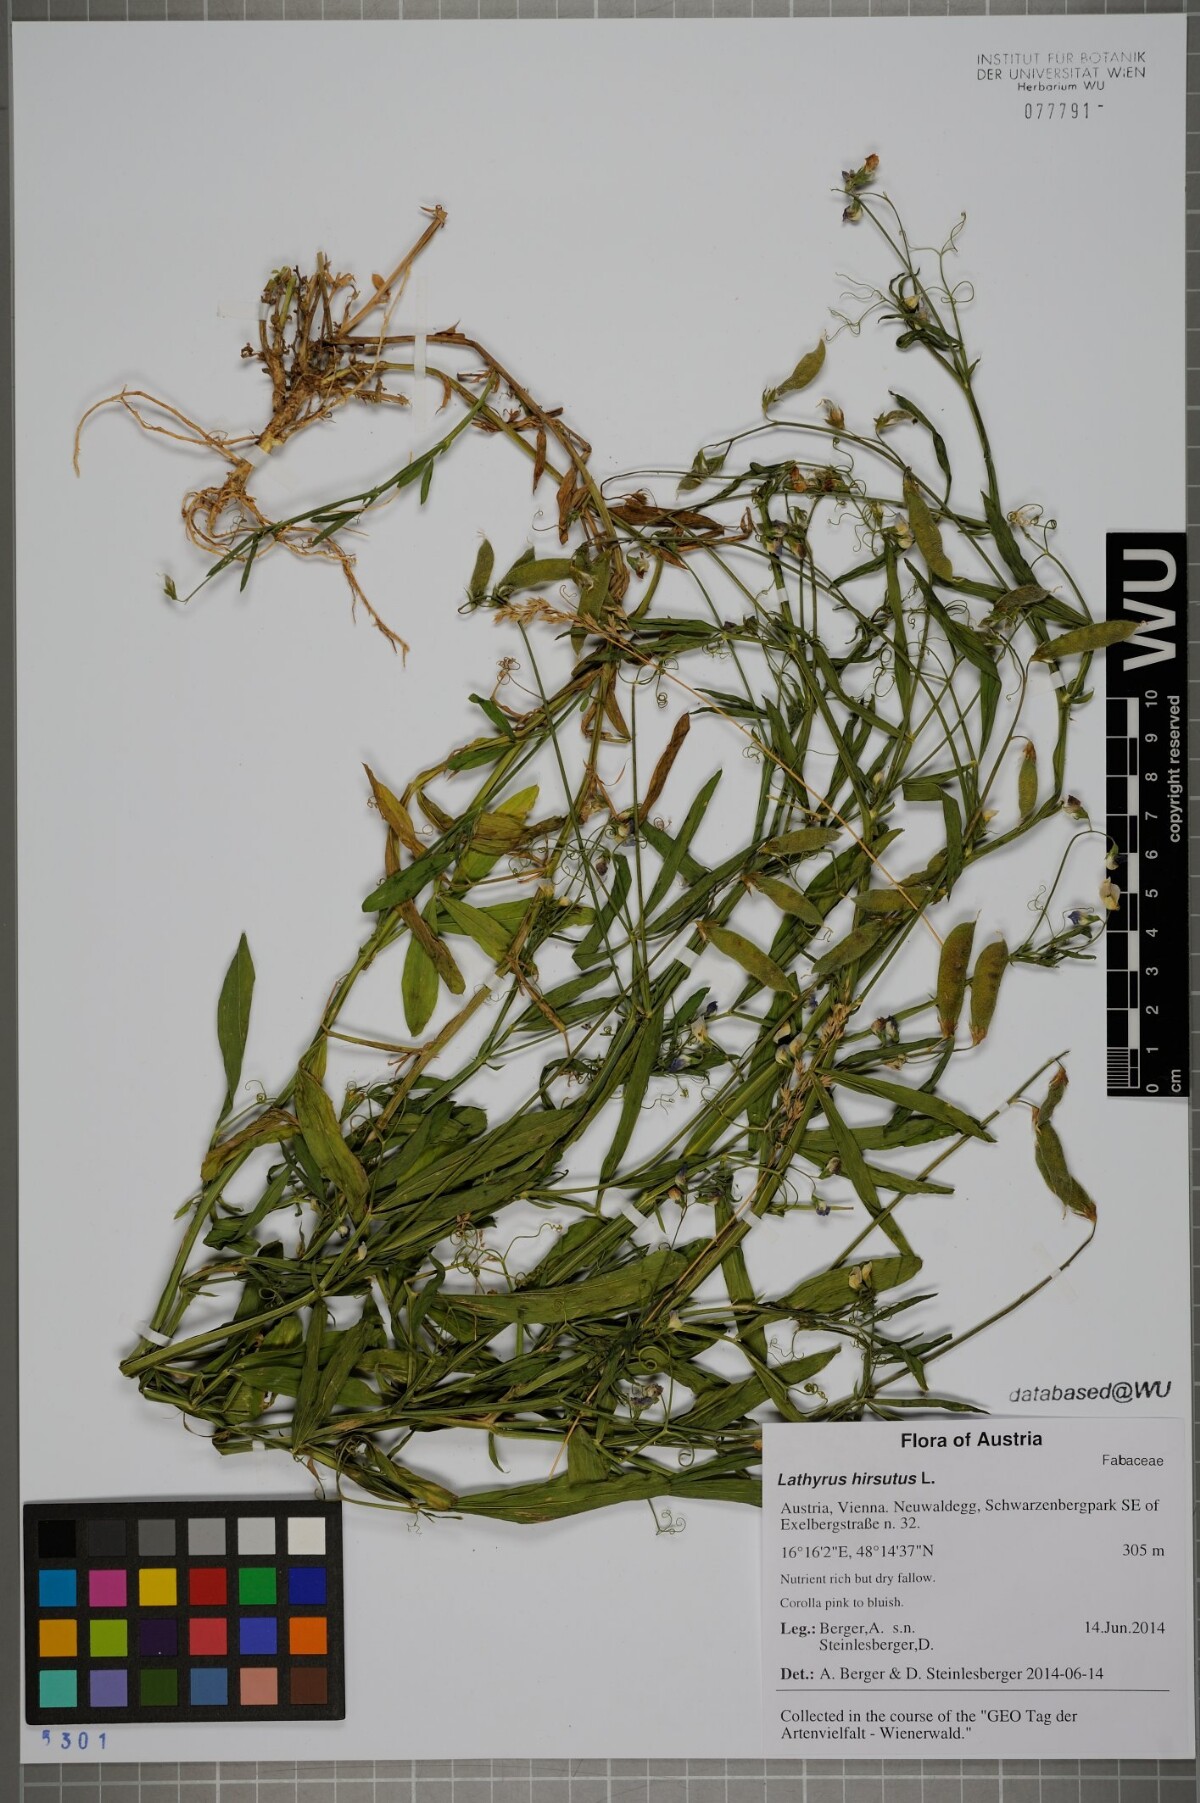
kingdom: Plantae
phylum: Tracheophyta
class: Magnoliopsida
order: Fabales
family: Fabaceae
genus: Lathyrus
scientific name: Lathyrus hirsutus
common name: Hairy vetchling
